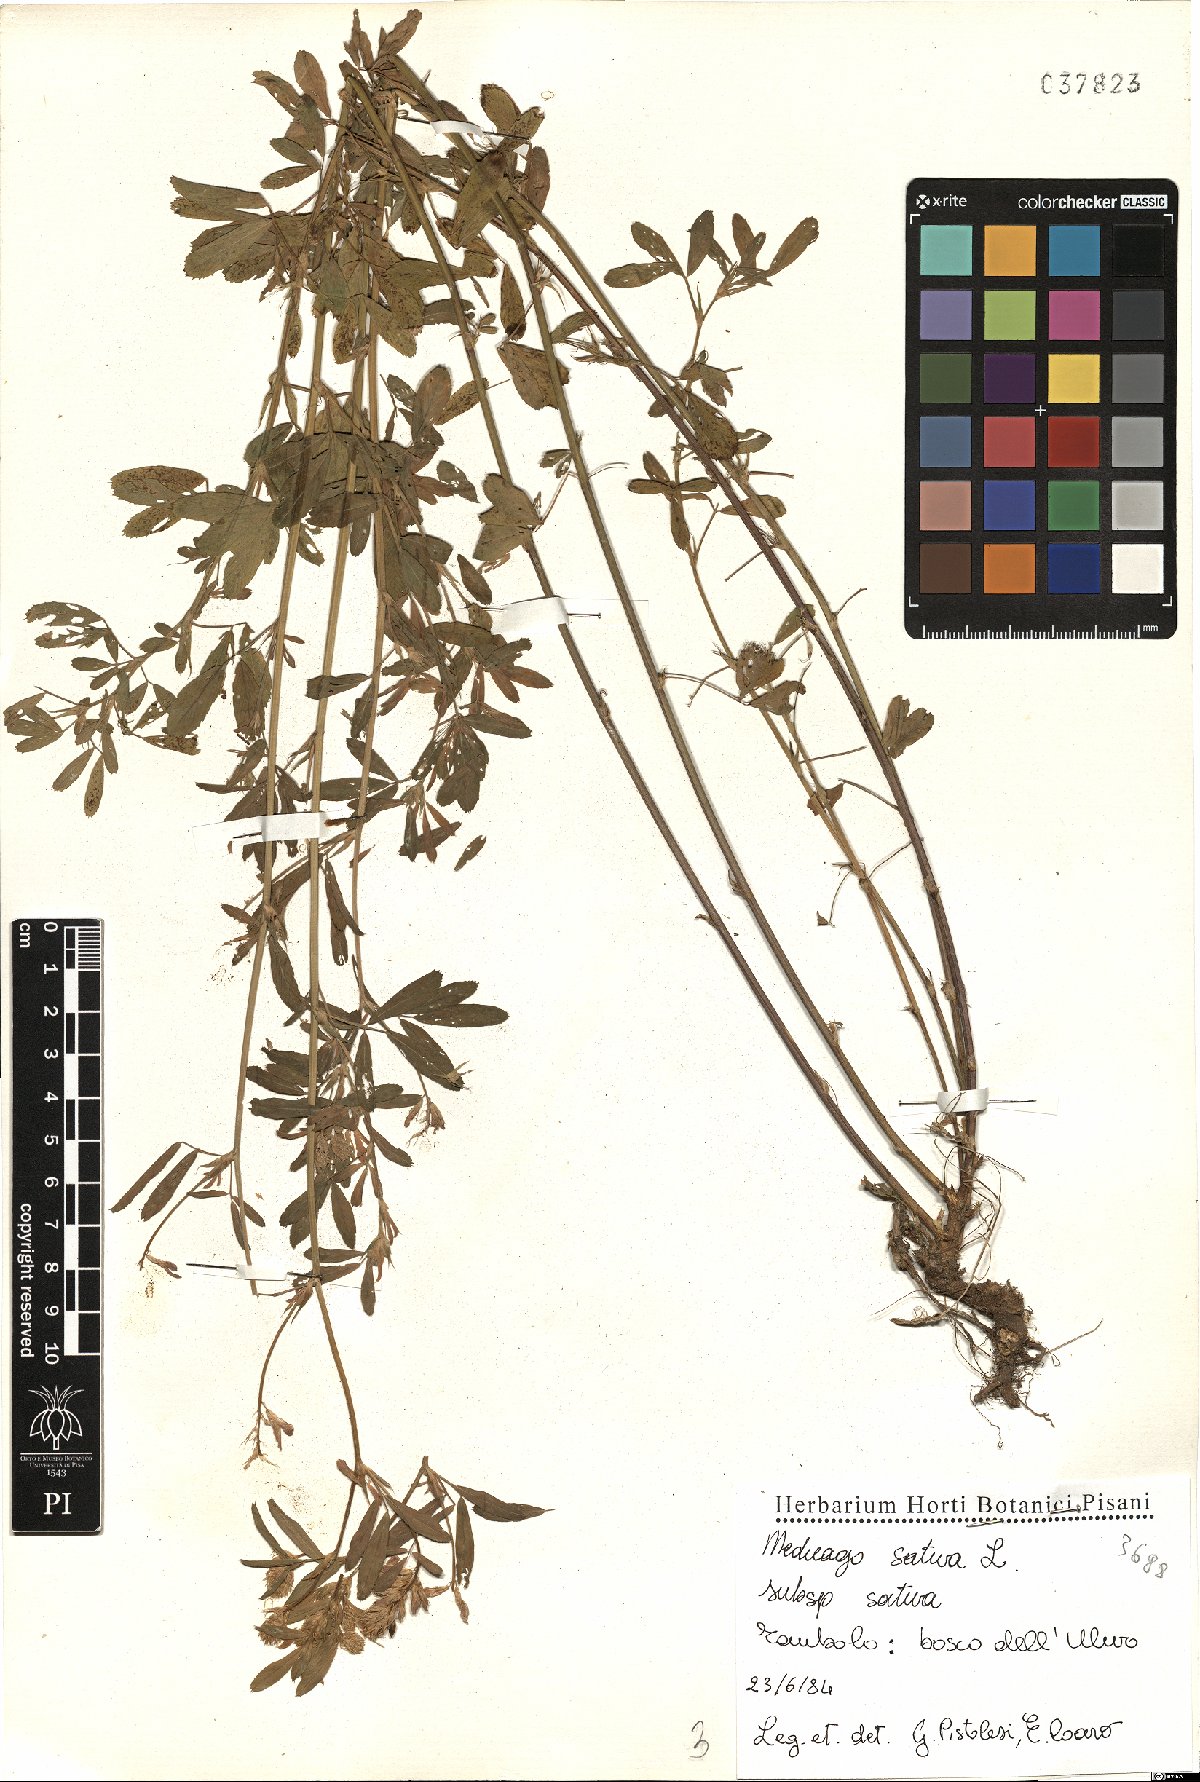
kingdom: Plantae
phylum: Tracheophyta
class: Magnoliopsida
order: Fabales
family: Fabaceae
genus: Medicago
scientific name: Medicago sativa
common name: Alfalfa
